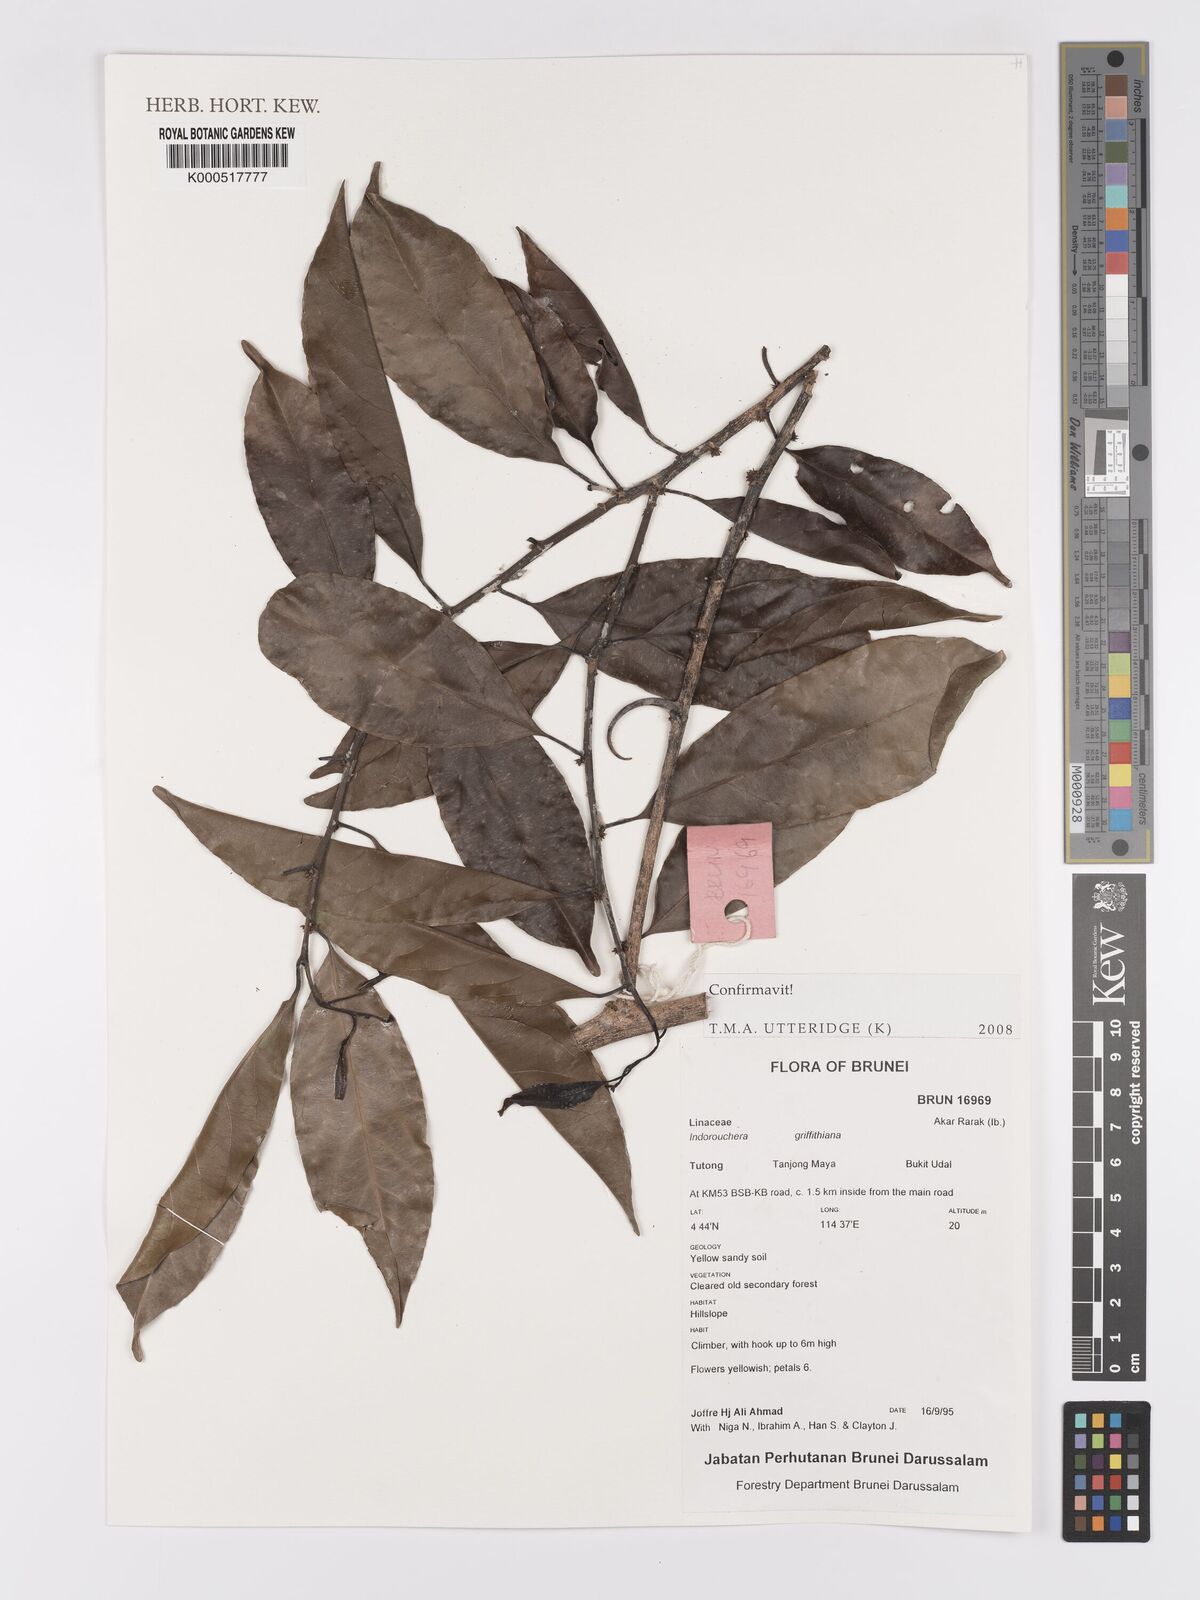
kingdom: Plantae
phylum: Tracheophyta
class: Magnoliopsida
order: Malpighiales
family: Linaceae
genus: Indorouchera
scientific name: Indorouchera griffithiana
